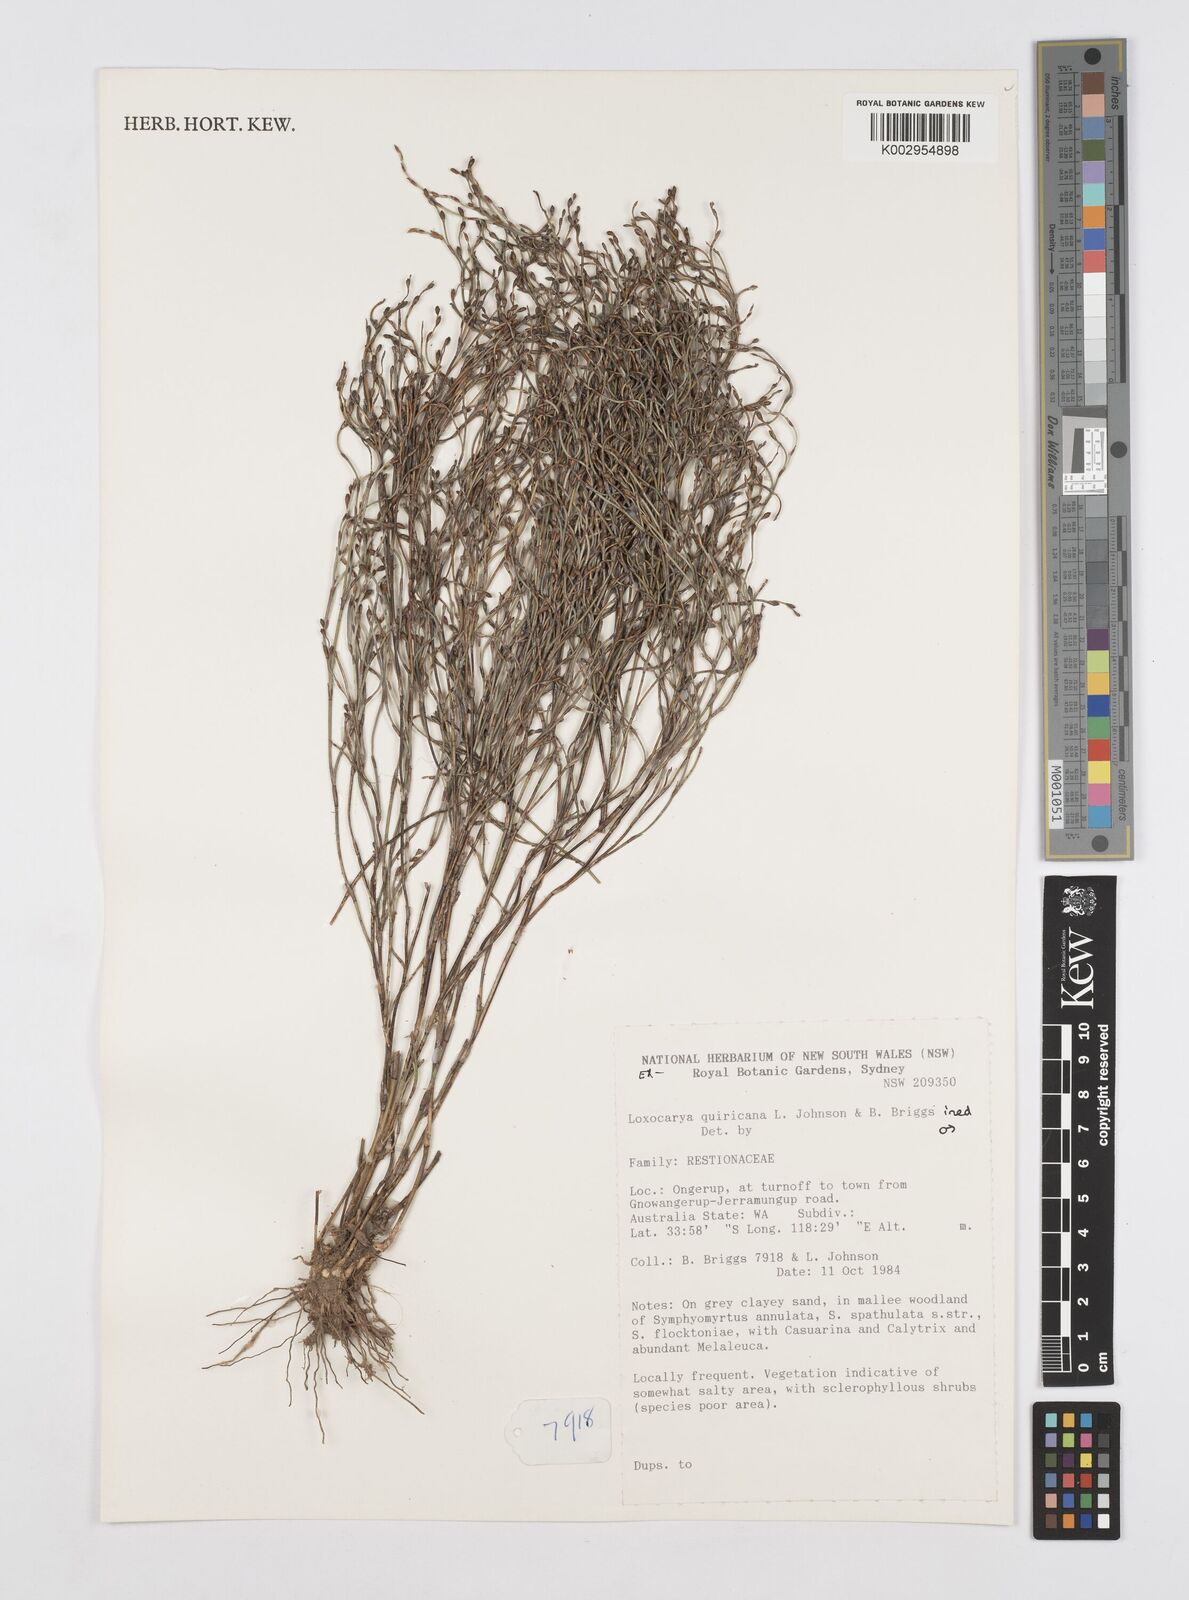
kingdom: Plantae
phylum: Tracheophyta
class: Liliopsida
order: Poales
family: Restionaceae
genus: Desmocladus
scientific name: Desmocladus quiricanus
